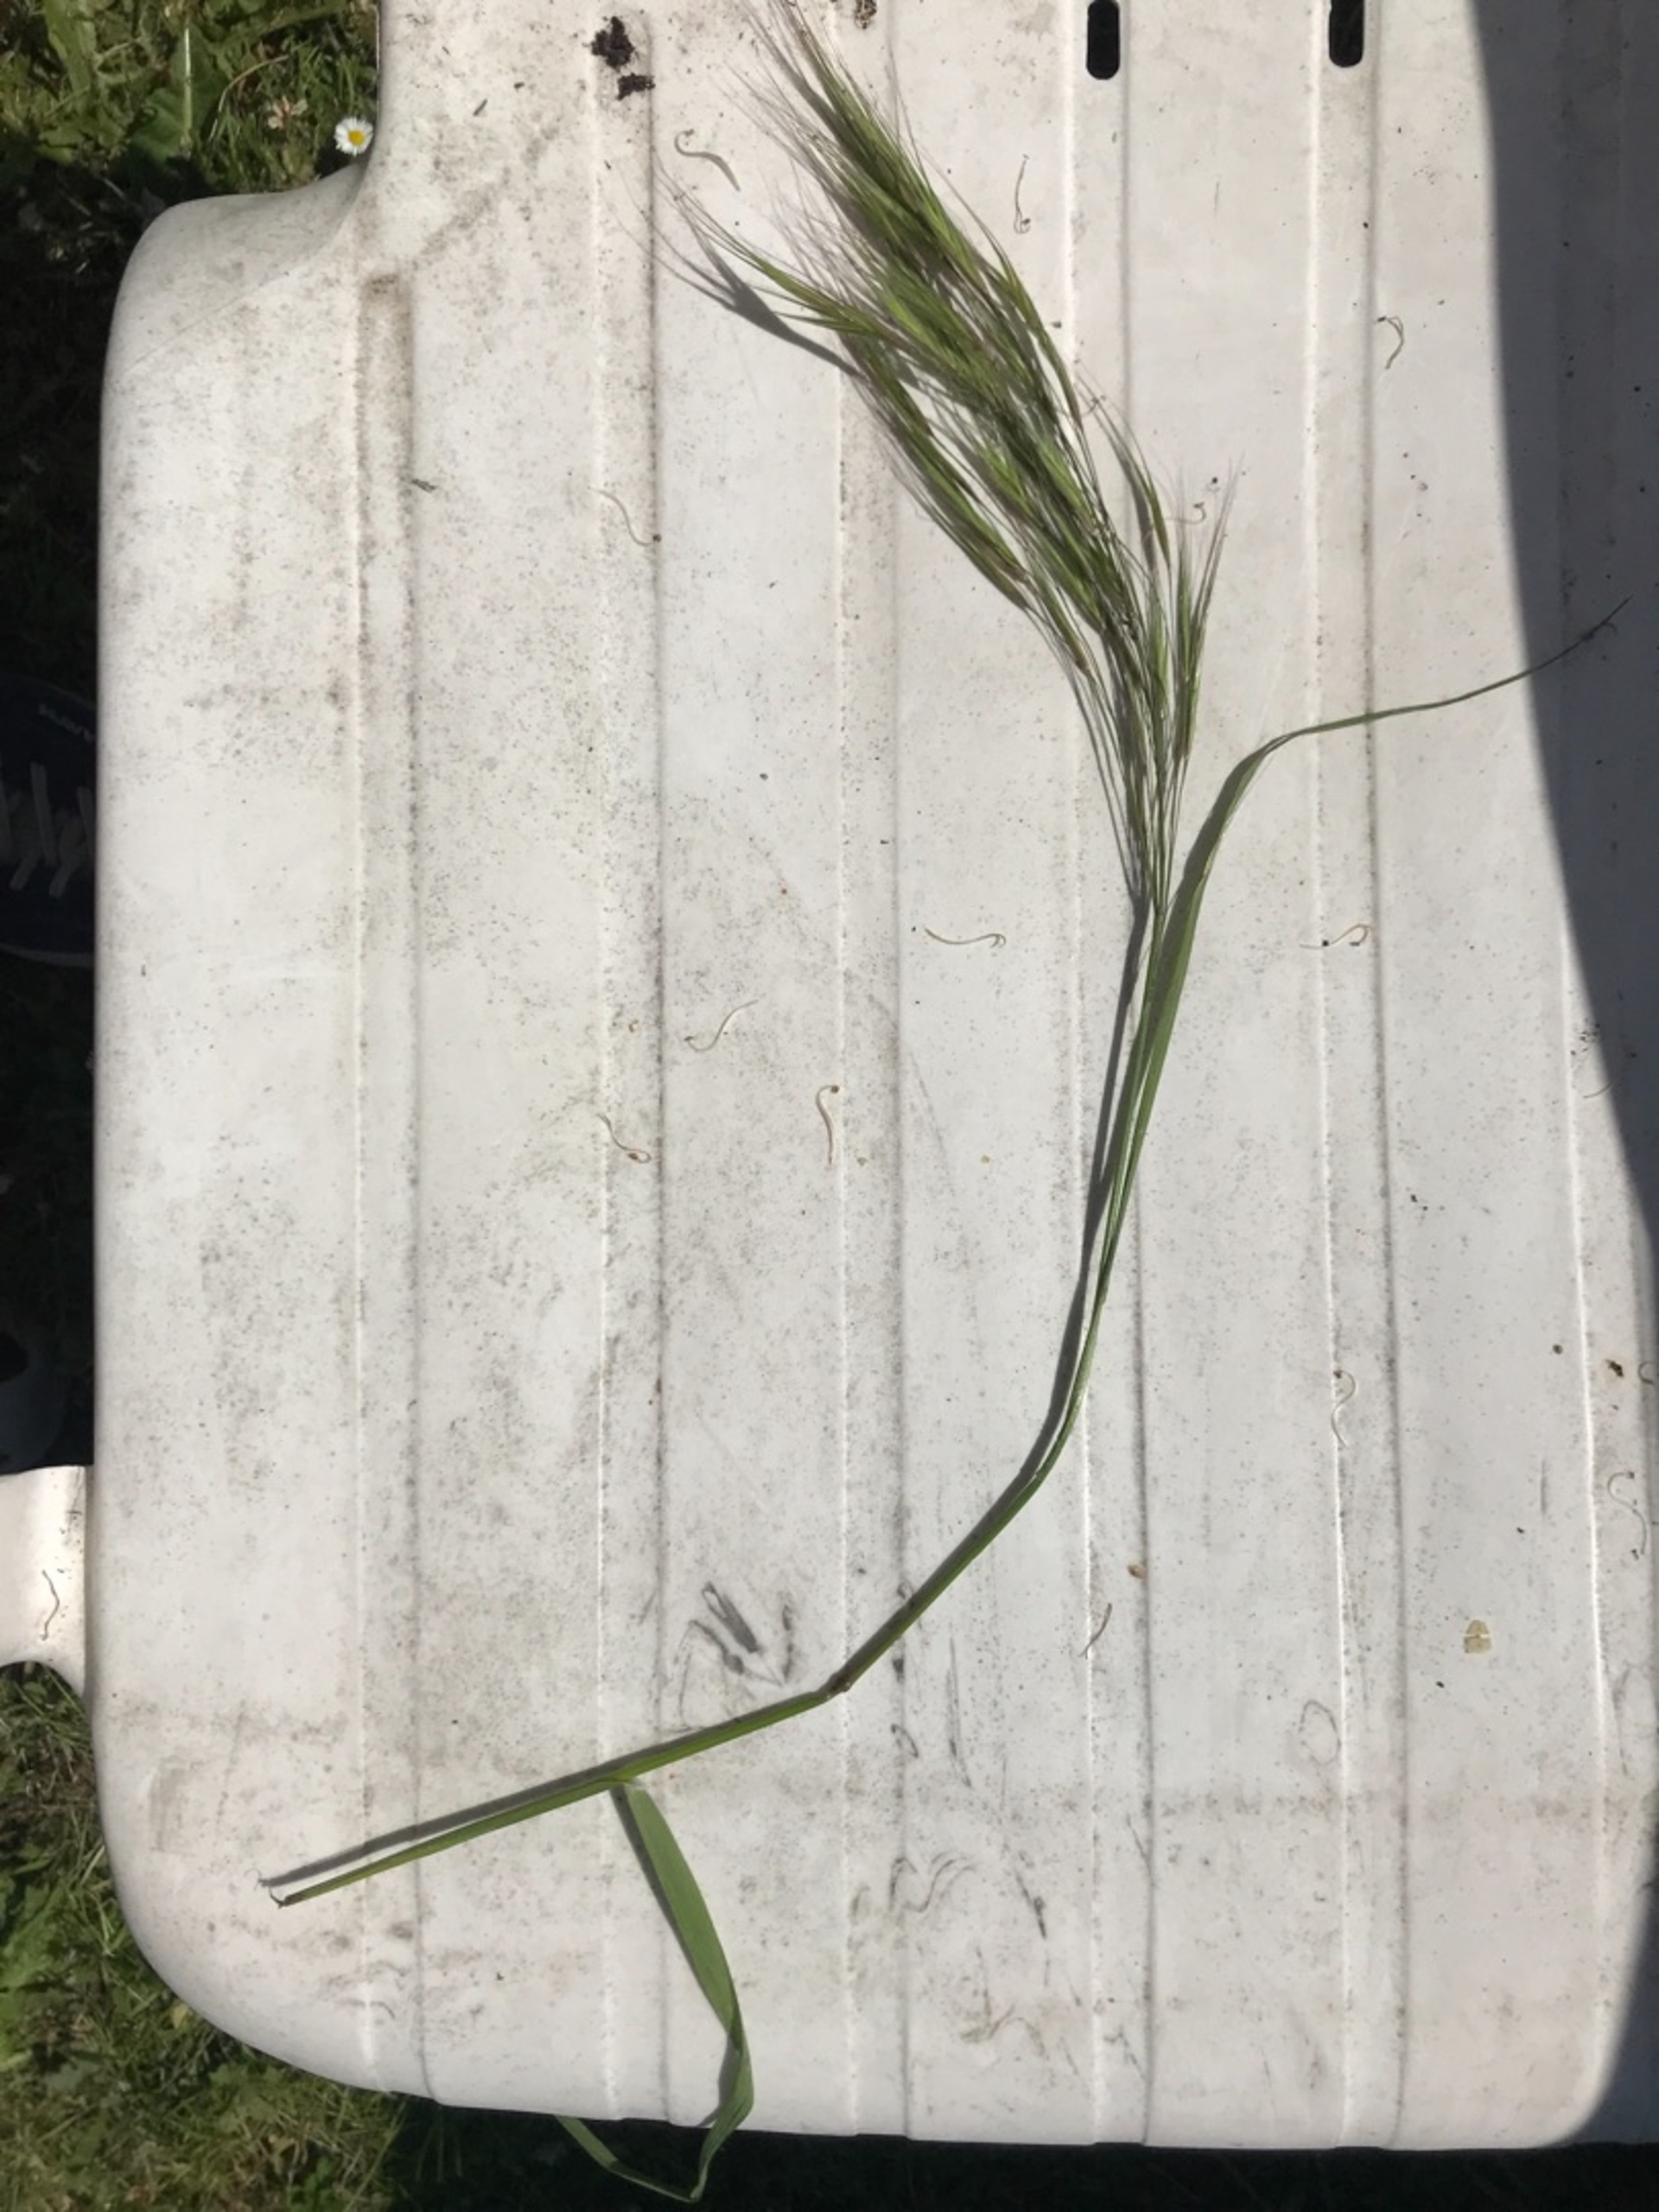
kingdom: Plantae
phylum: Tracheophyta
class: Liliopsida
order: Poales
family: Poaceae
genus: Bromus
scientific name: Bromus sterilis
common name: Gold hejre
